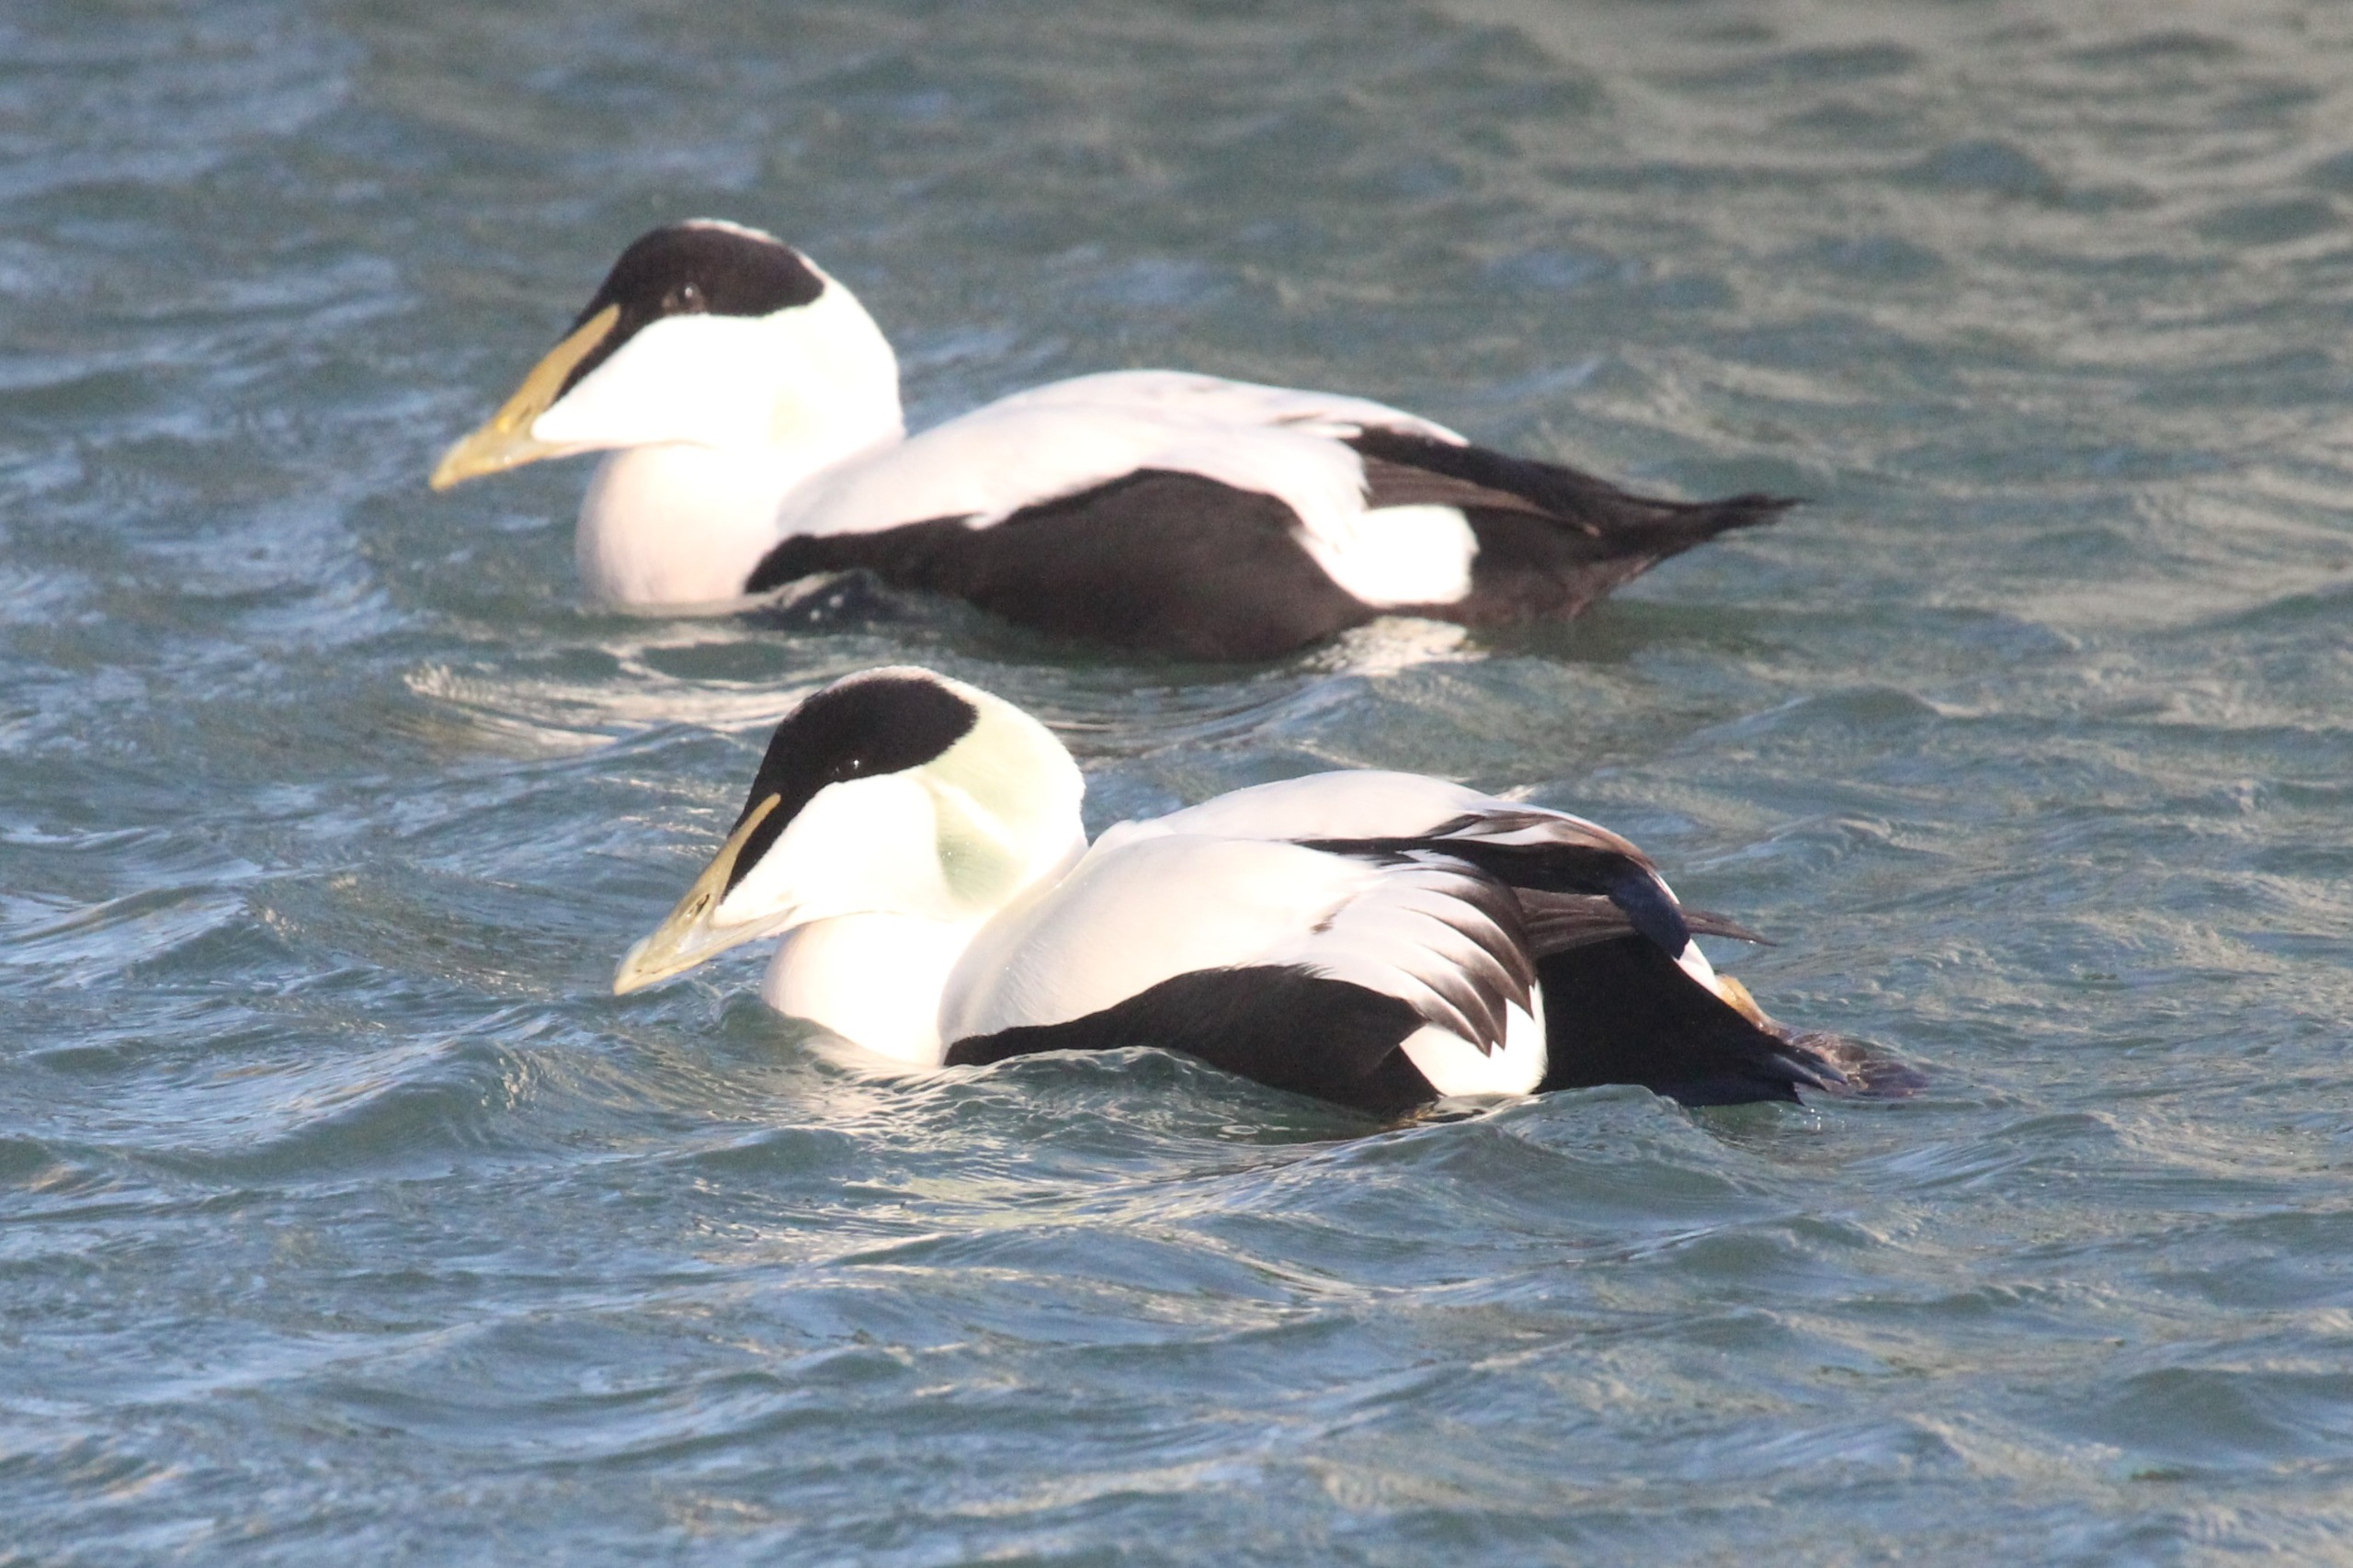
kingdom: Animalia
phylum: Chordata
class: Aves
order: Anseriformes
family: Anatidae
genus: Somateria
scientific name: Somateria mollissima
